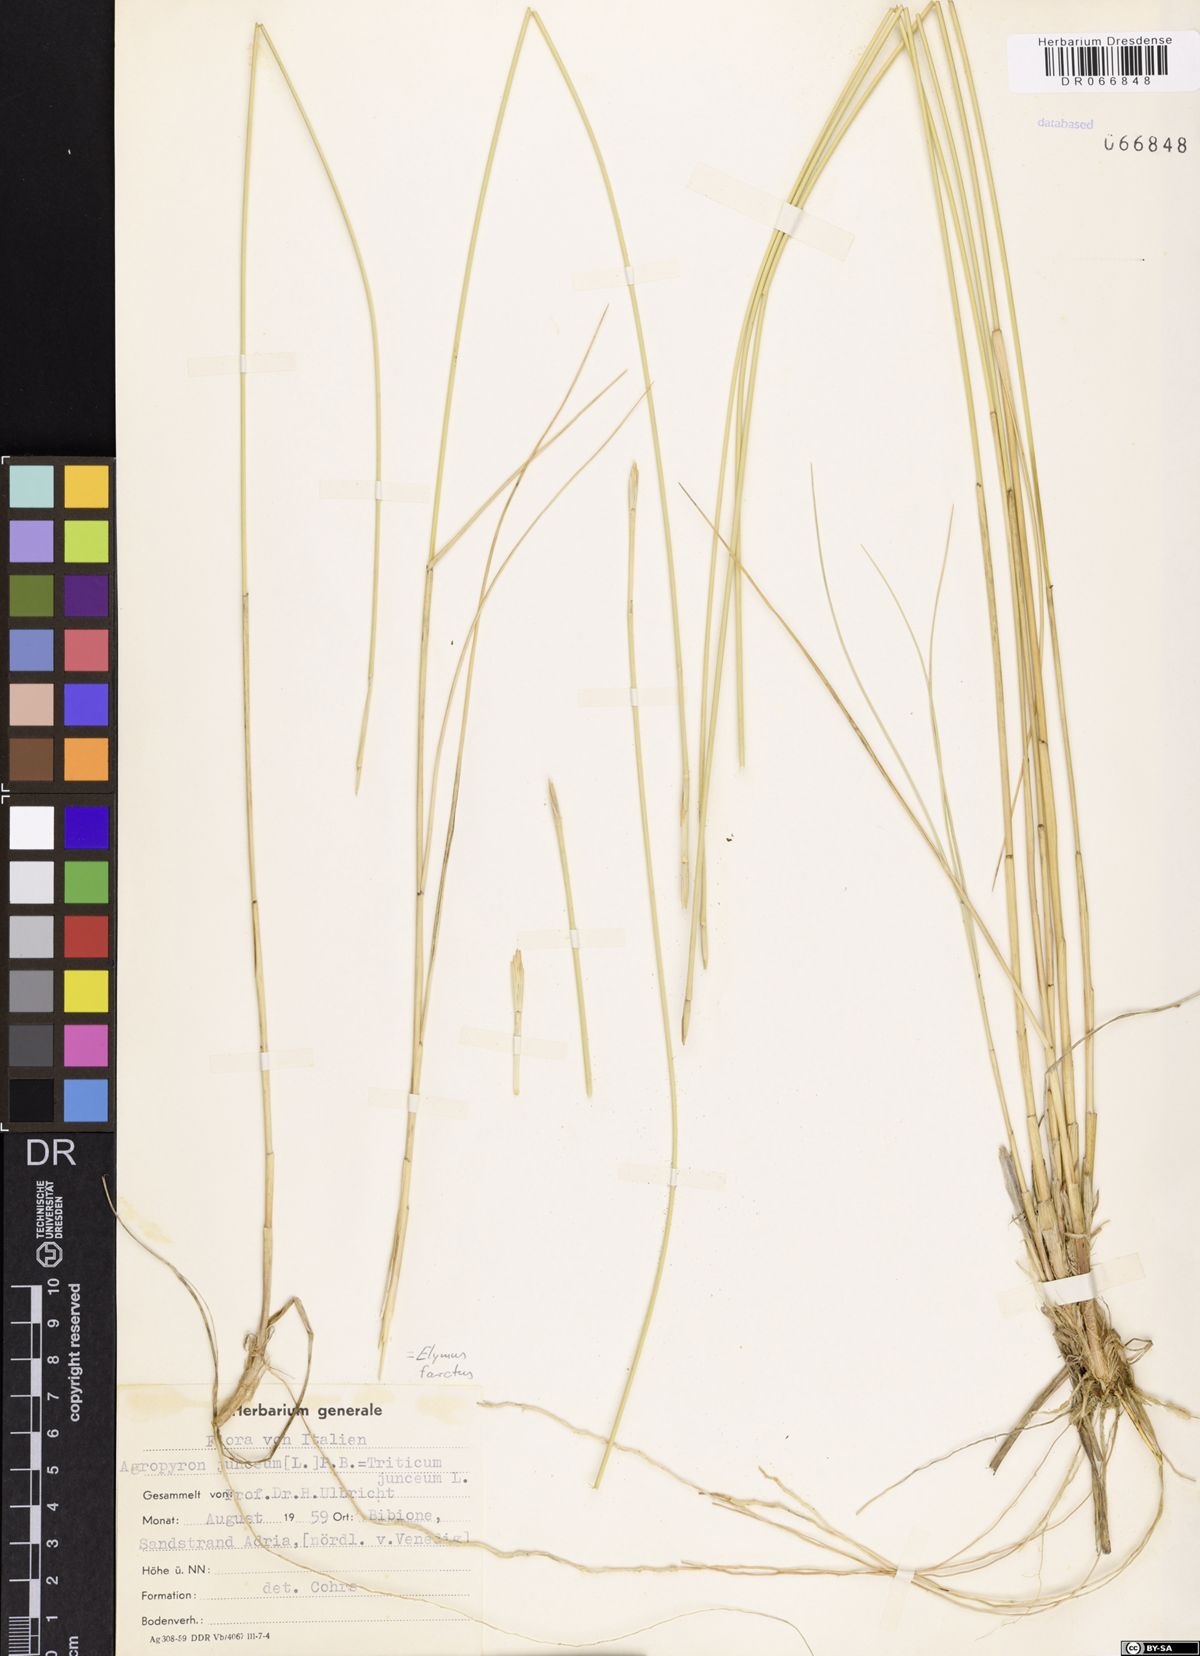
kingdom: Plantae
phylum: Tracheophyta
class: Liliopsida
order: Poales
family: Poaceae
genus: Thinopyrum
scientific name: Thinopyrum junceum
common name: Russian wheatgrass
